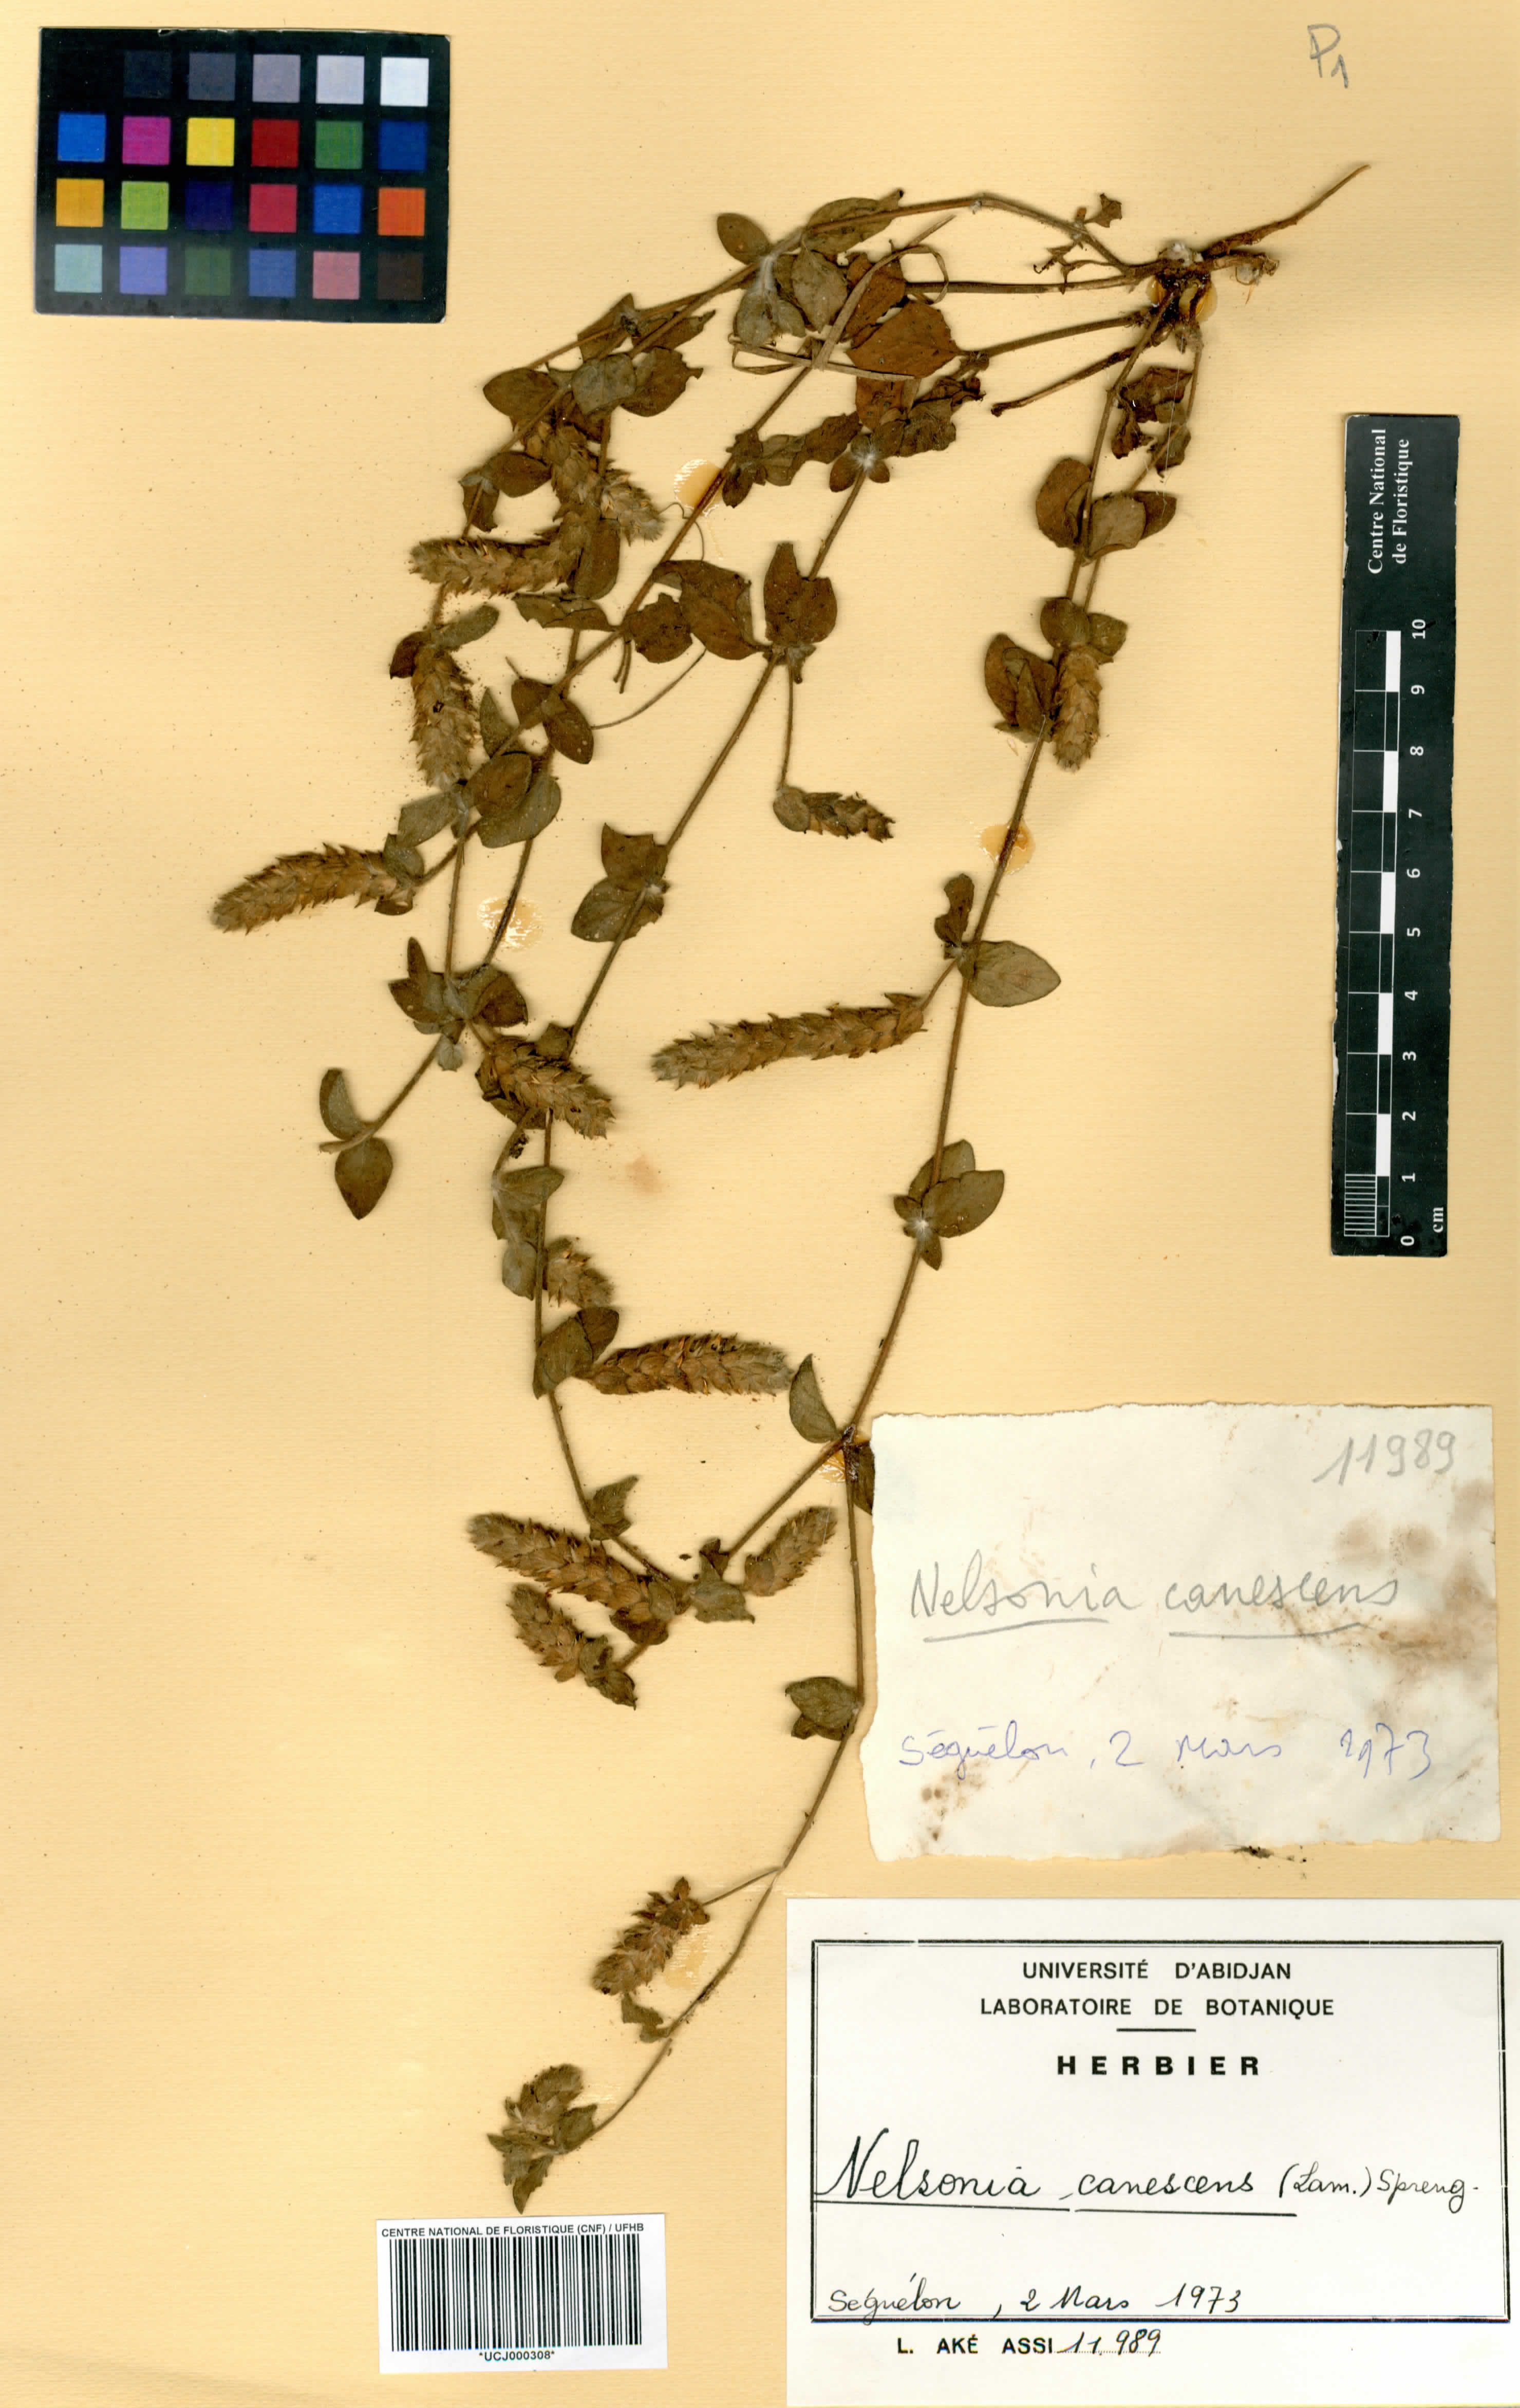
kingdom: Plantae
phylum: Tracheophyta
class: Magnoliopsida
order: Lamiales
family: Acanthaceae
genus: Nelsonia
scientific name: Nelsonia canescens
